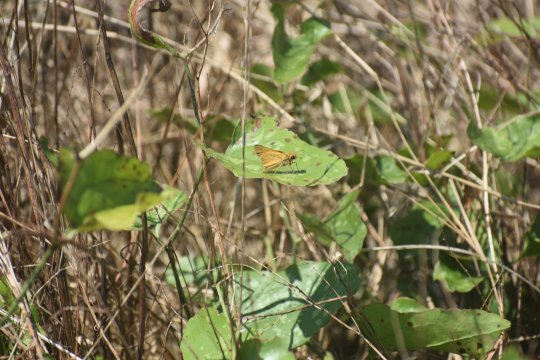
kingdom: Animalia
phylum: Arthropoda
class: Insecta
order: Lepidoptera
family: Hesperiidae
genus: Hylephila
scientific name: Hylephila phyleus
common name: Fiery Skipper
